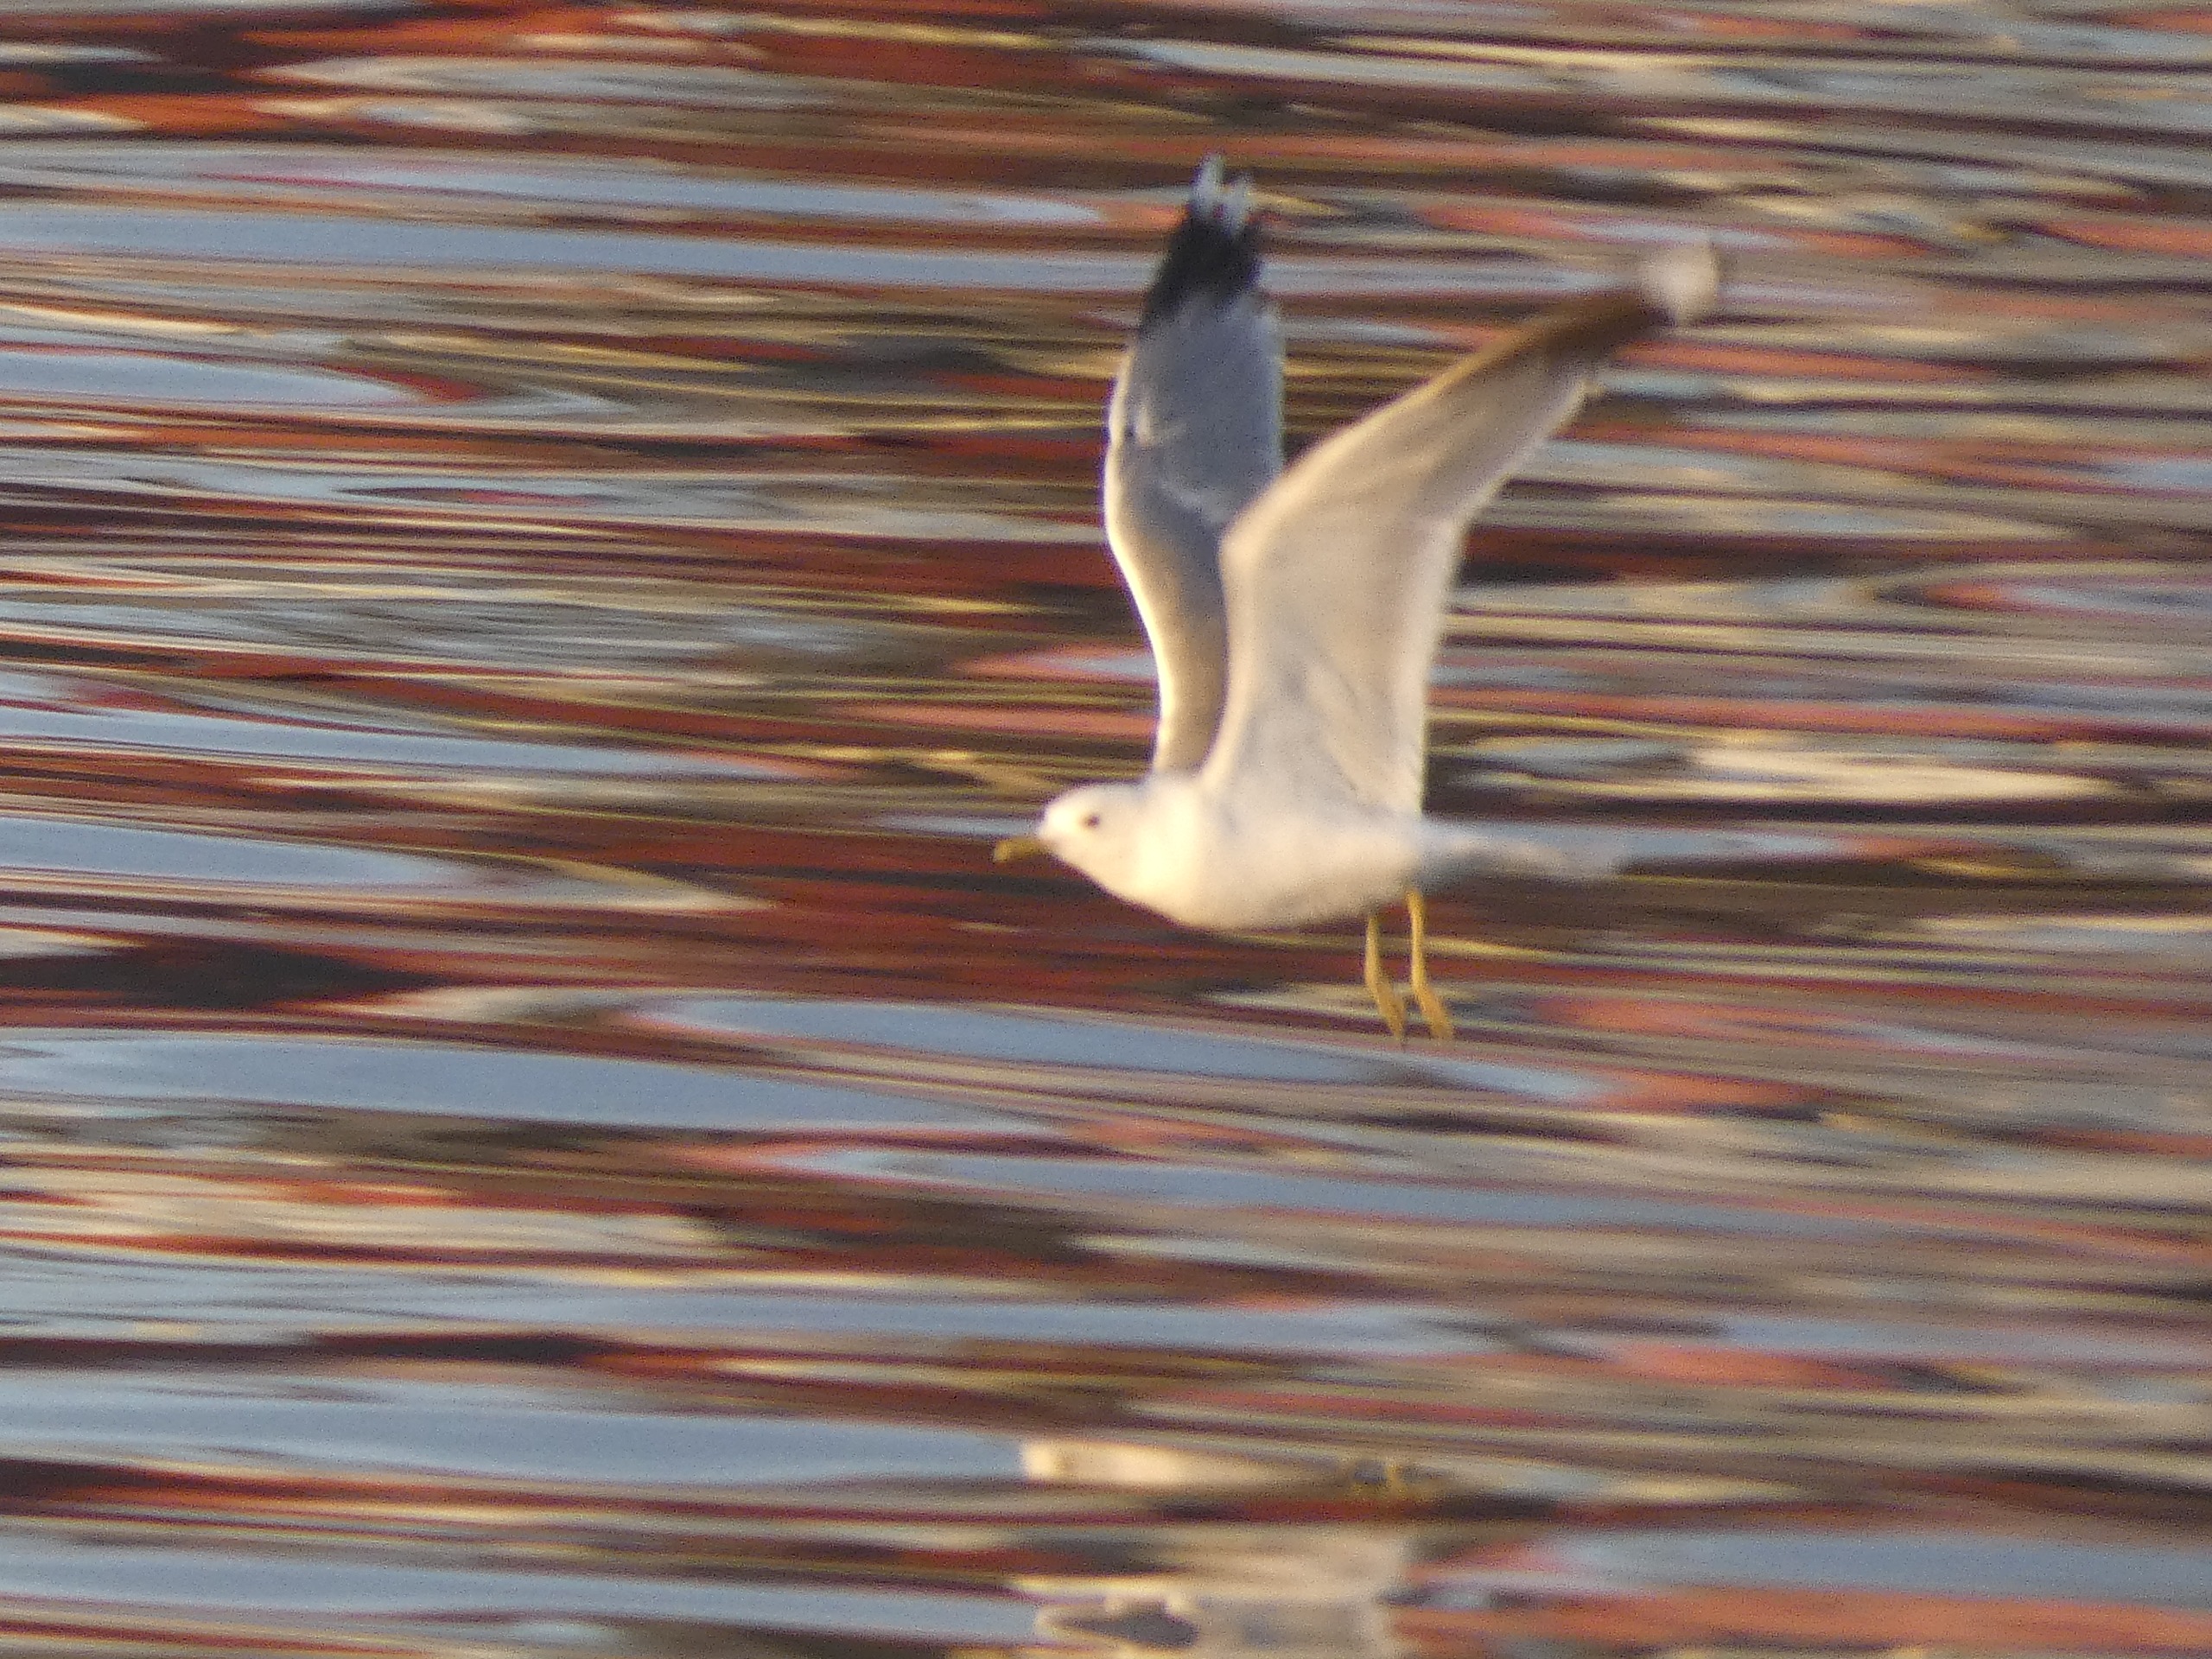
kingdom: Animalia
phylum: Chordata
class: Aves
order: Charadriiformes
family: Laridae
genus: Larus
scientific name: Larus canus
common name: Stormmåge
